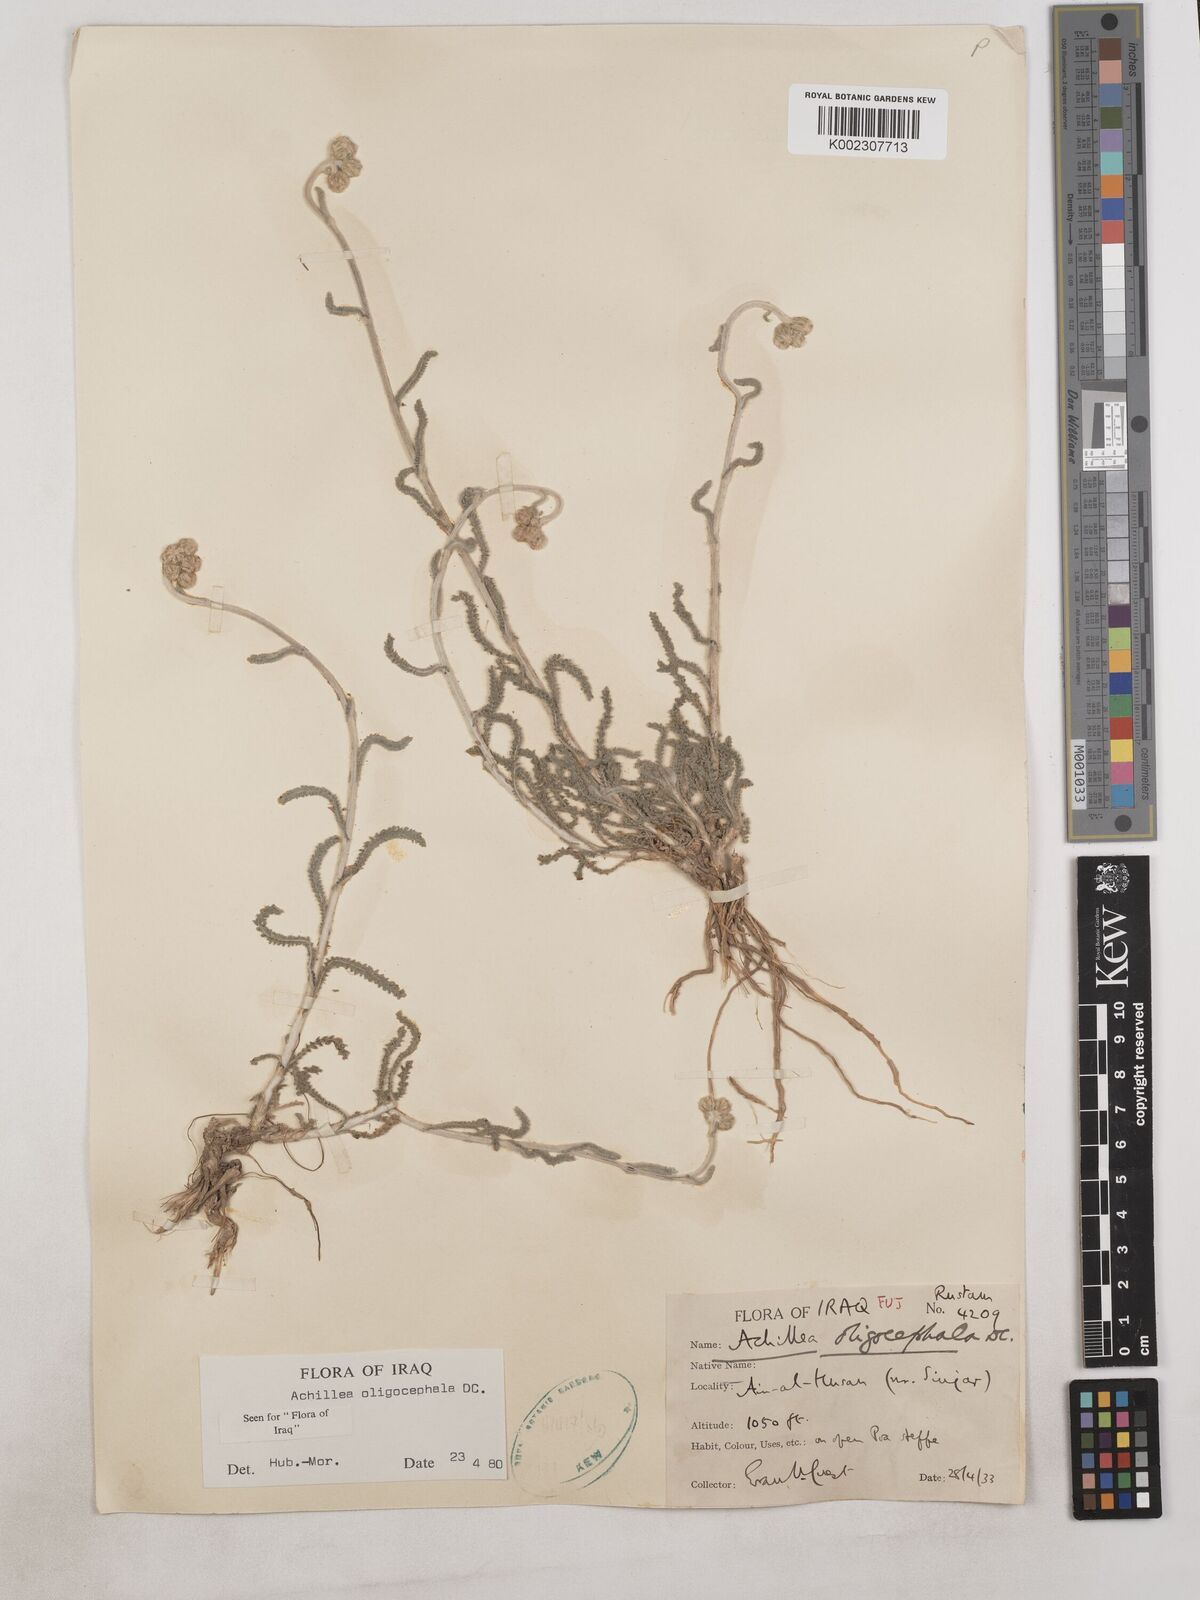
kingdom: Plantae
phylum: Tracheophyta
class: Magnoliopsida
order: Asterales
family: Asteraceae
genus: Achillea
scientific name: Achillea oligocephala
